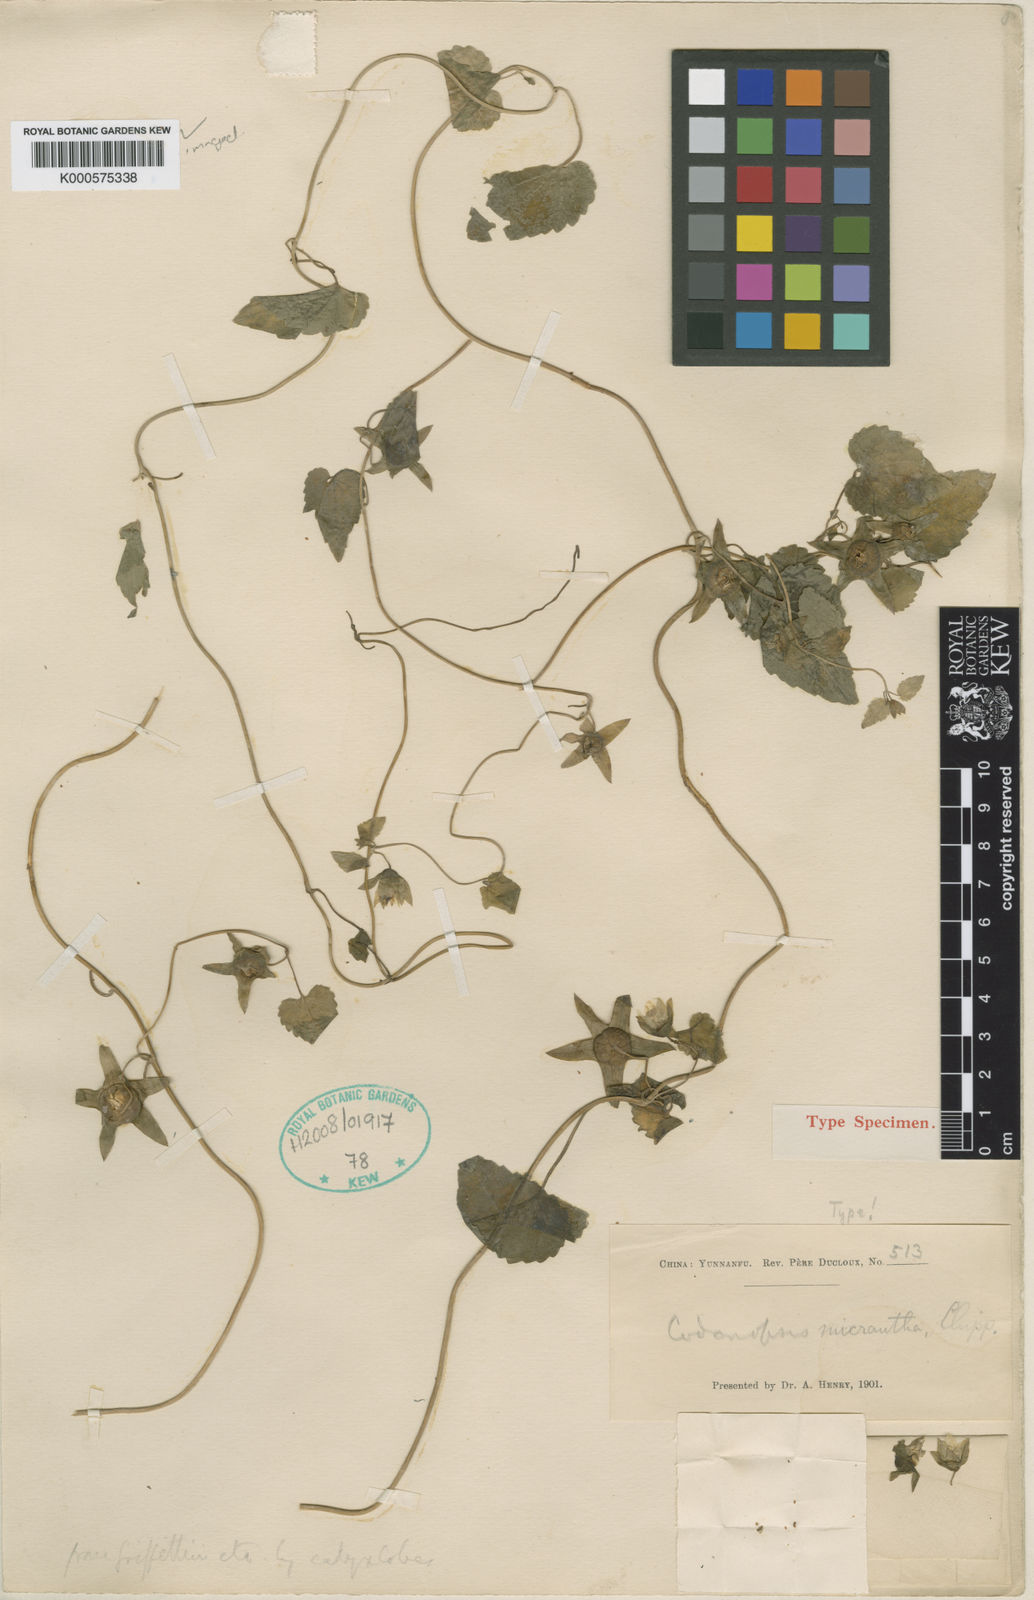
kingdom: Plantae
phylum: Tracheophyta
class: Magnoliopsida
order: Asterales
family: Campanulaceae
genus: Codonopsis
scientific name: Codonopsis micrantha
